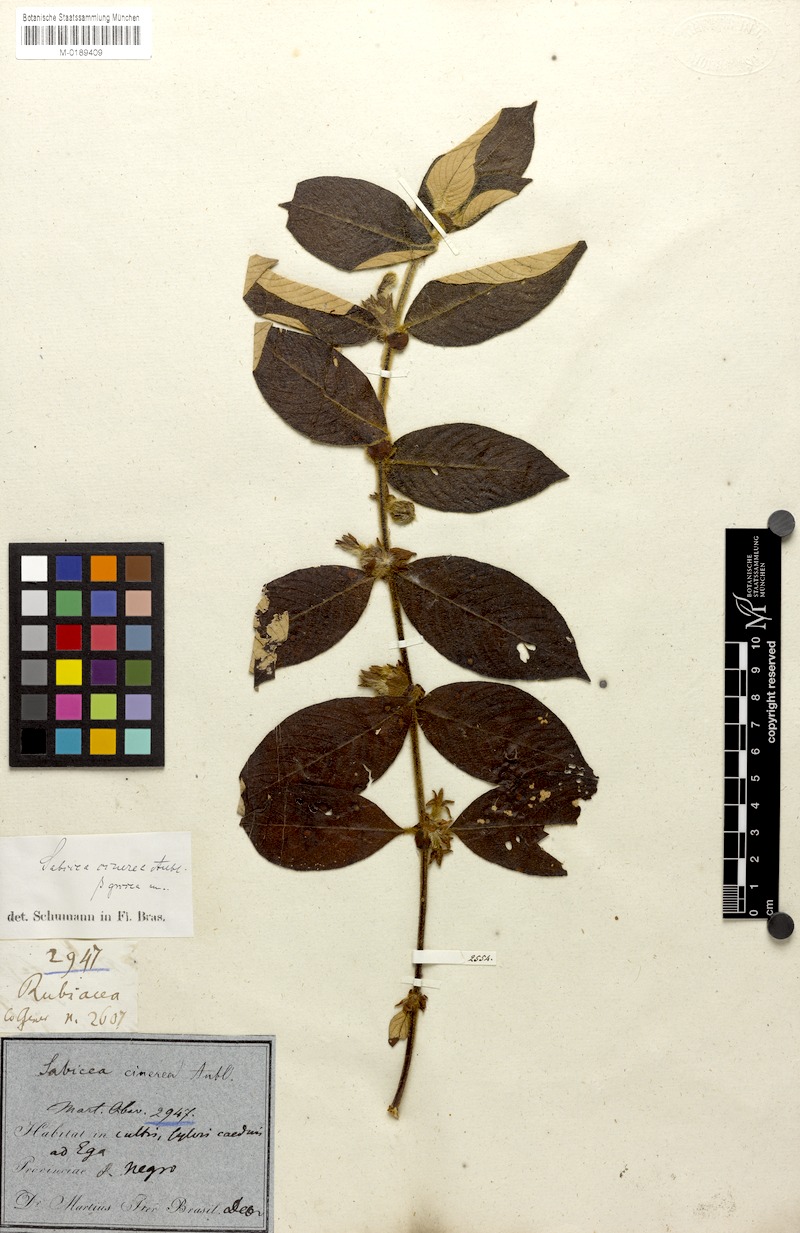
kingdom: Plantae
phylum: Tracheophyta
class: Magnoliopsida
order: Gentianales
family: Rubiaceae
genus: Sabicea
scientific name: Sabicea cinerea
